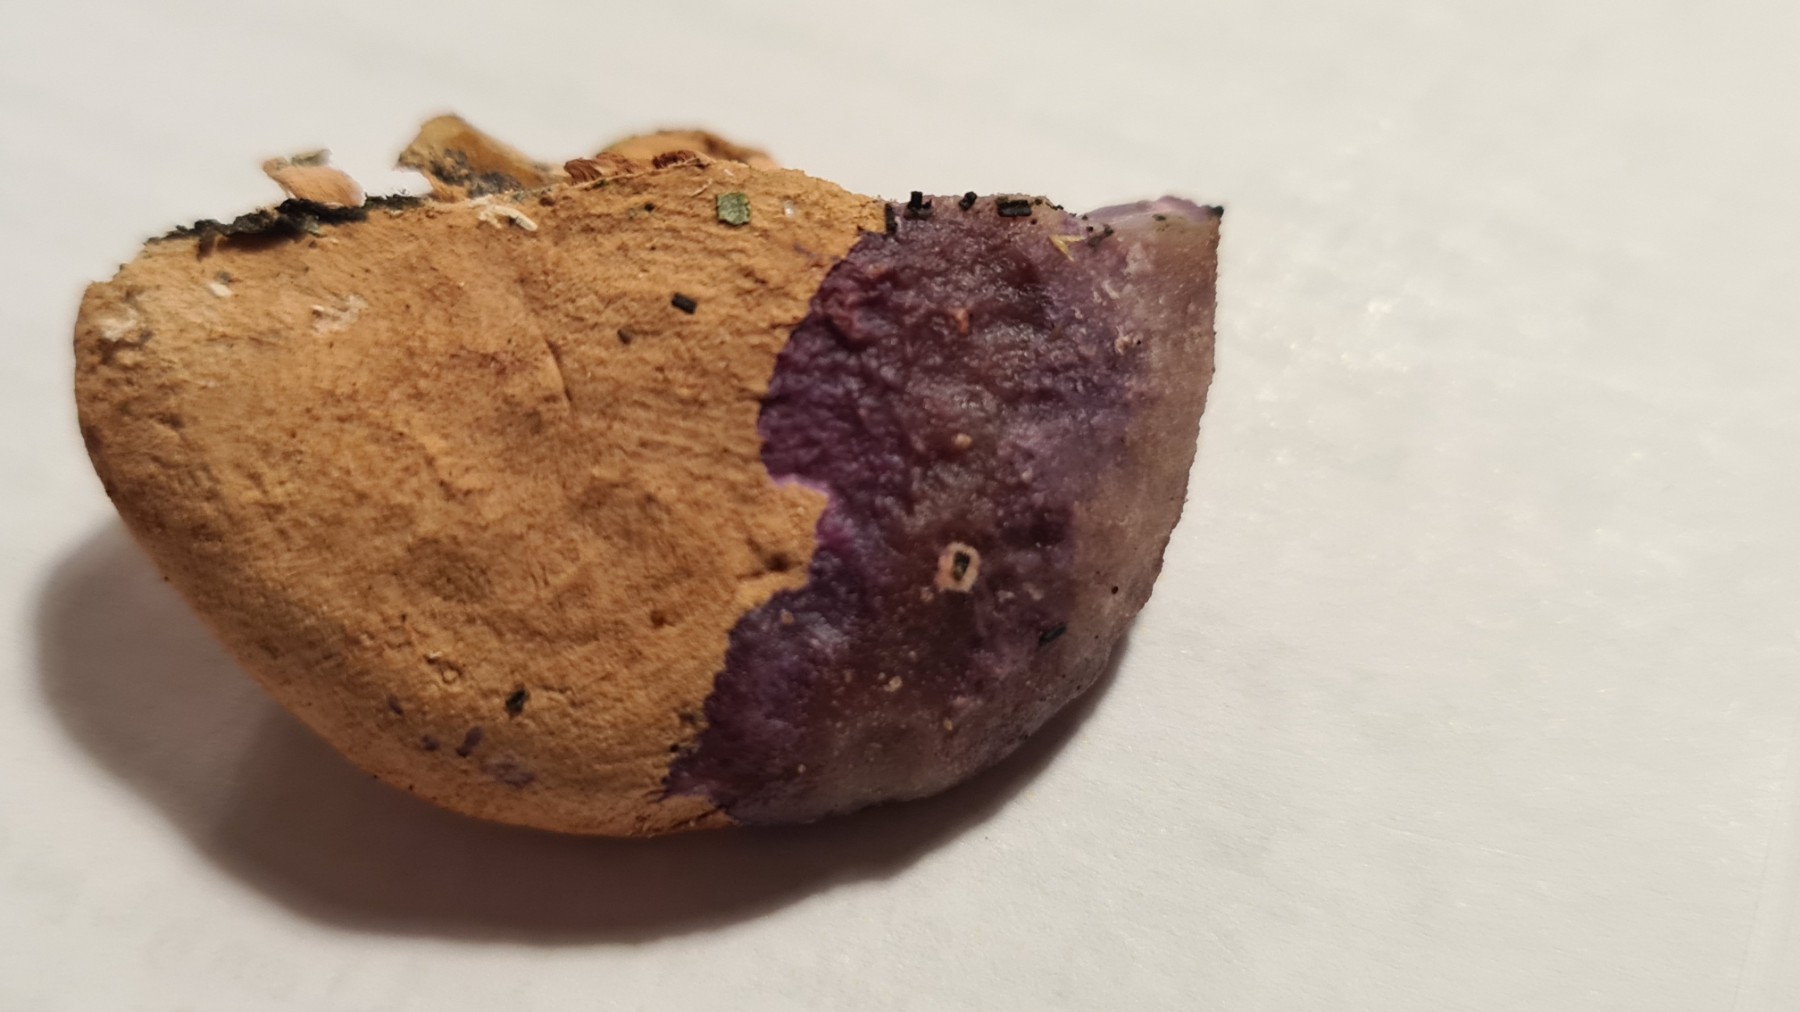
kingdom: Fungi
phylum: Basidiomycota
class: Agaricomycetes
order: Polyporales
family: Phanerochaetaceae
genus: Hapalopilus
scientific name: Hapalopilus rutilans
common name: rødlig okkerporesvamp
